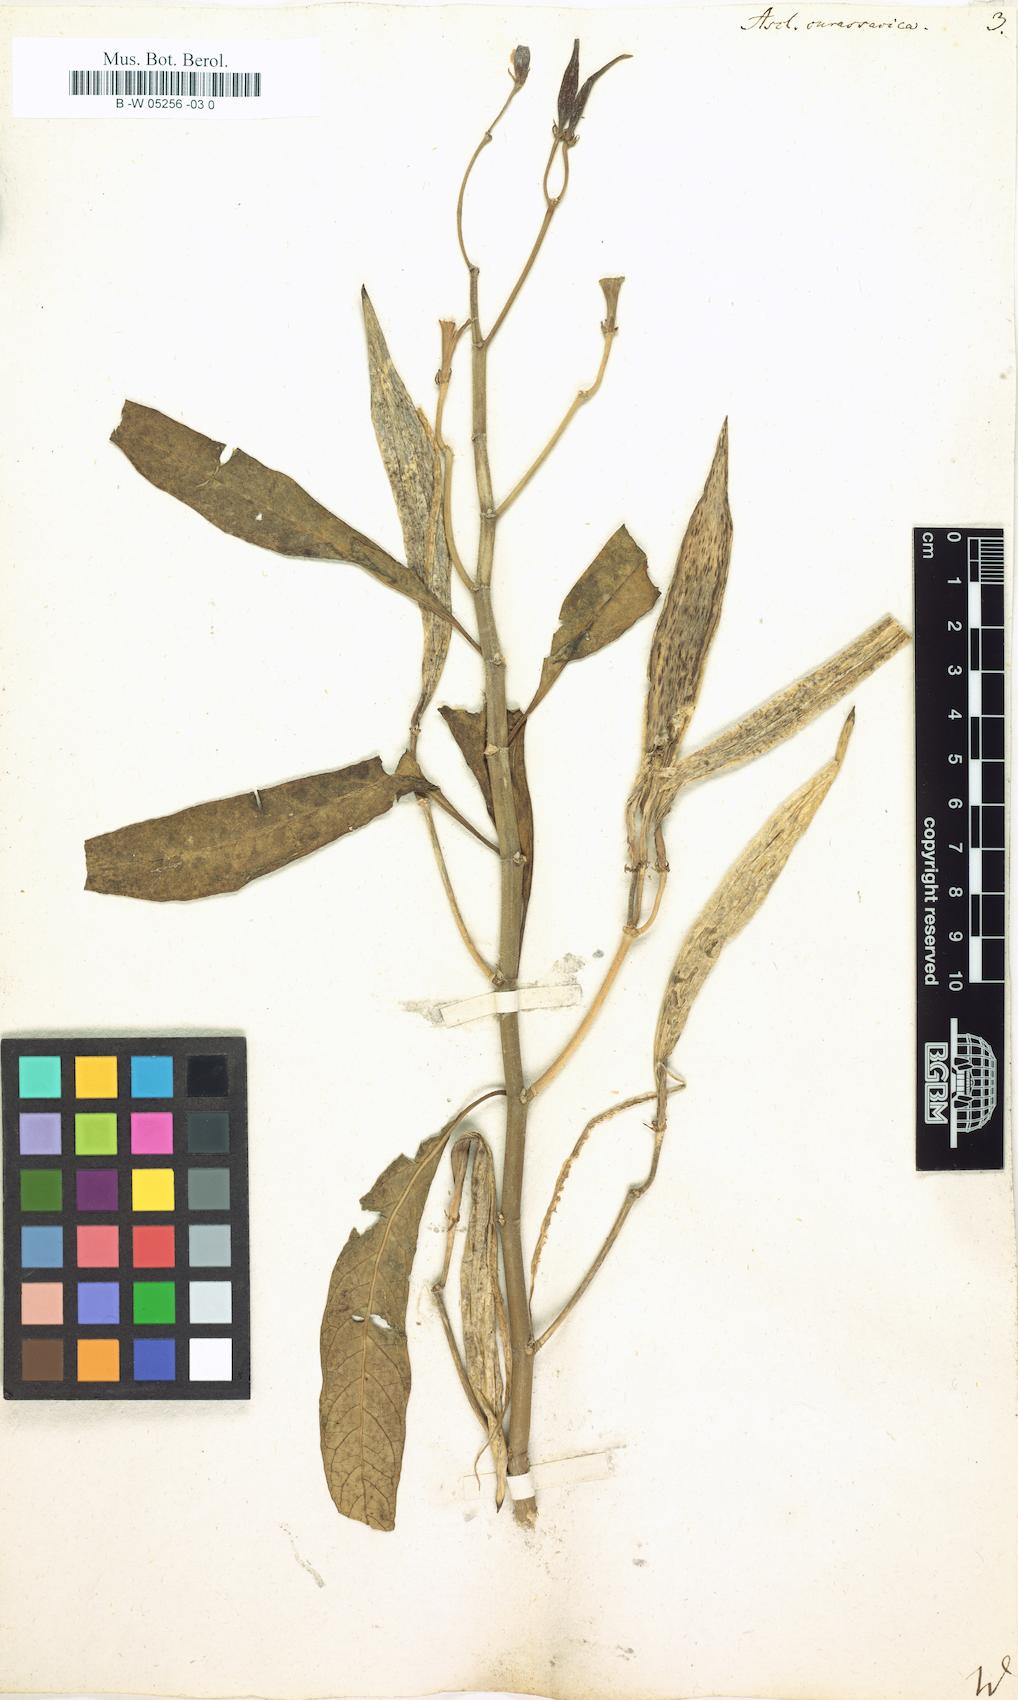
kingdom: Plantae
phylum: Tracheophyta
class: Magnoliopsida
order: Gentianales
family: Apocynaceae
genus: Asclepias
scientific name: Asclepias curassavica
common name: Bloodflower
